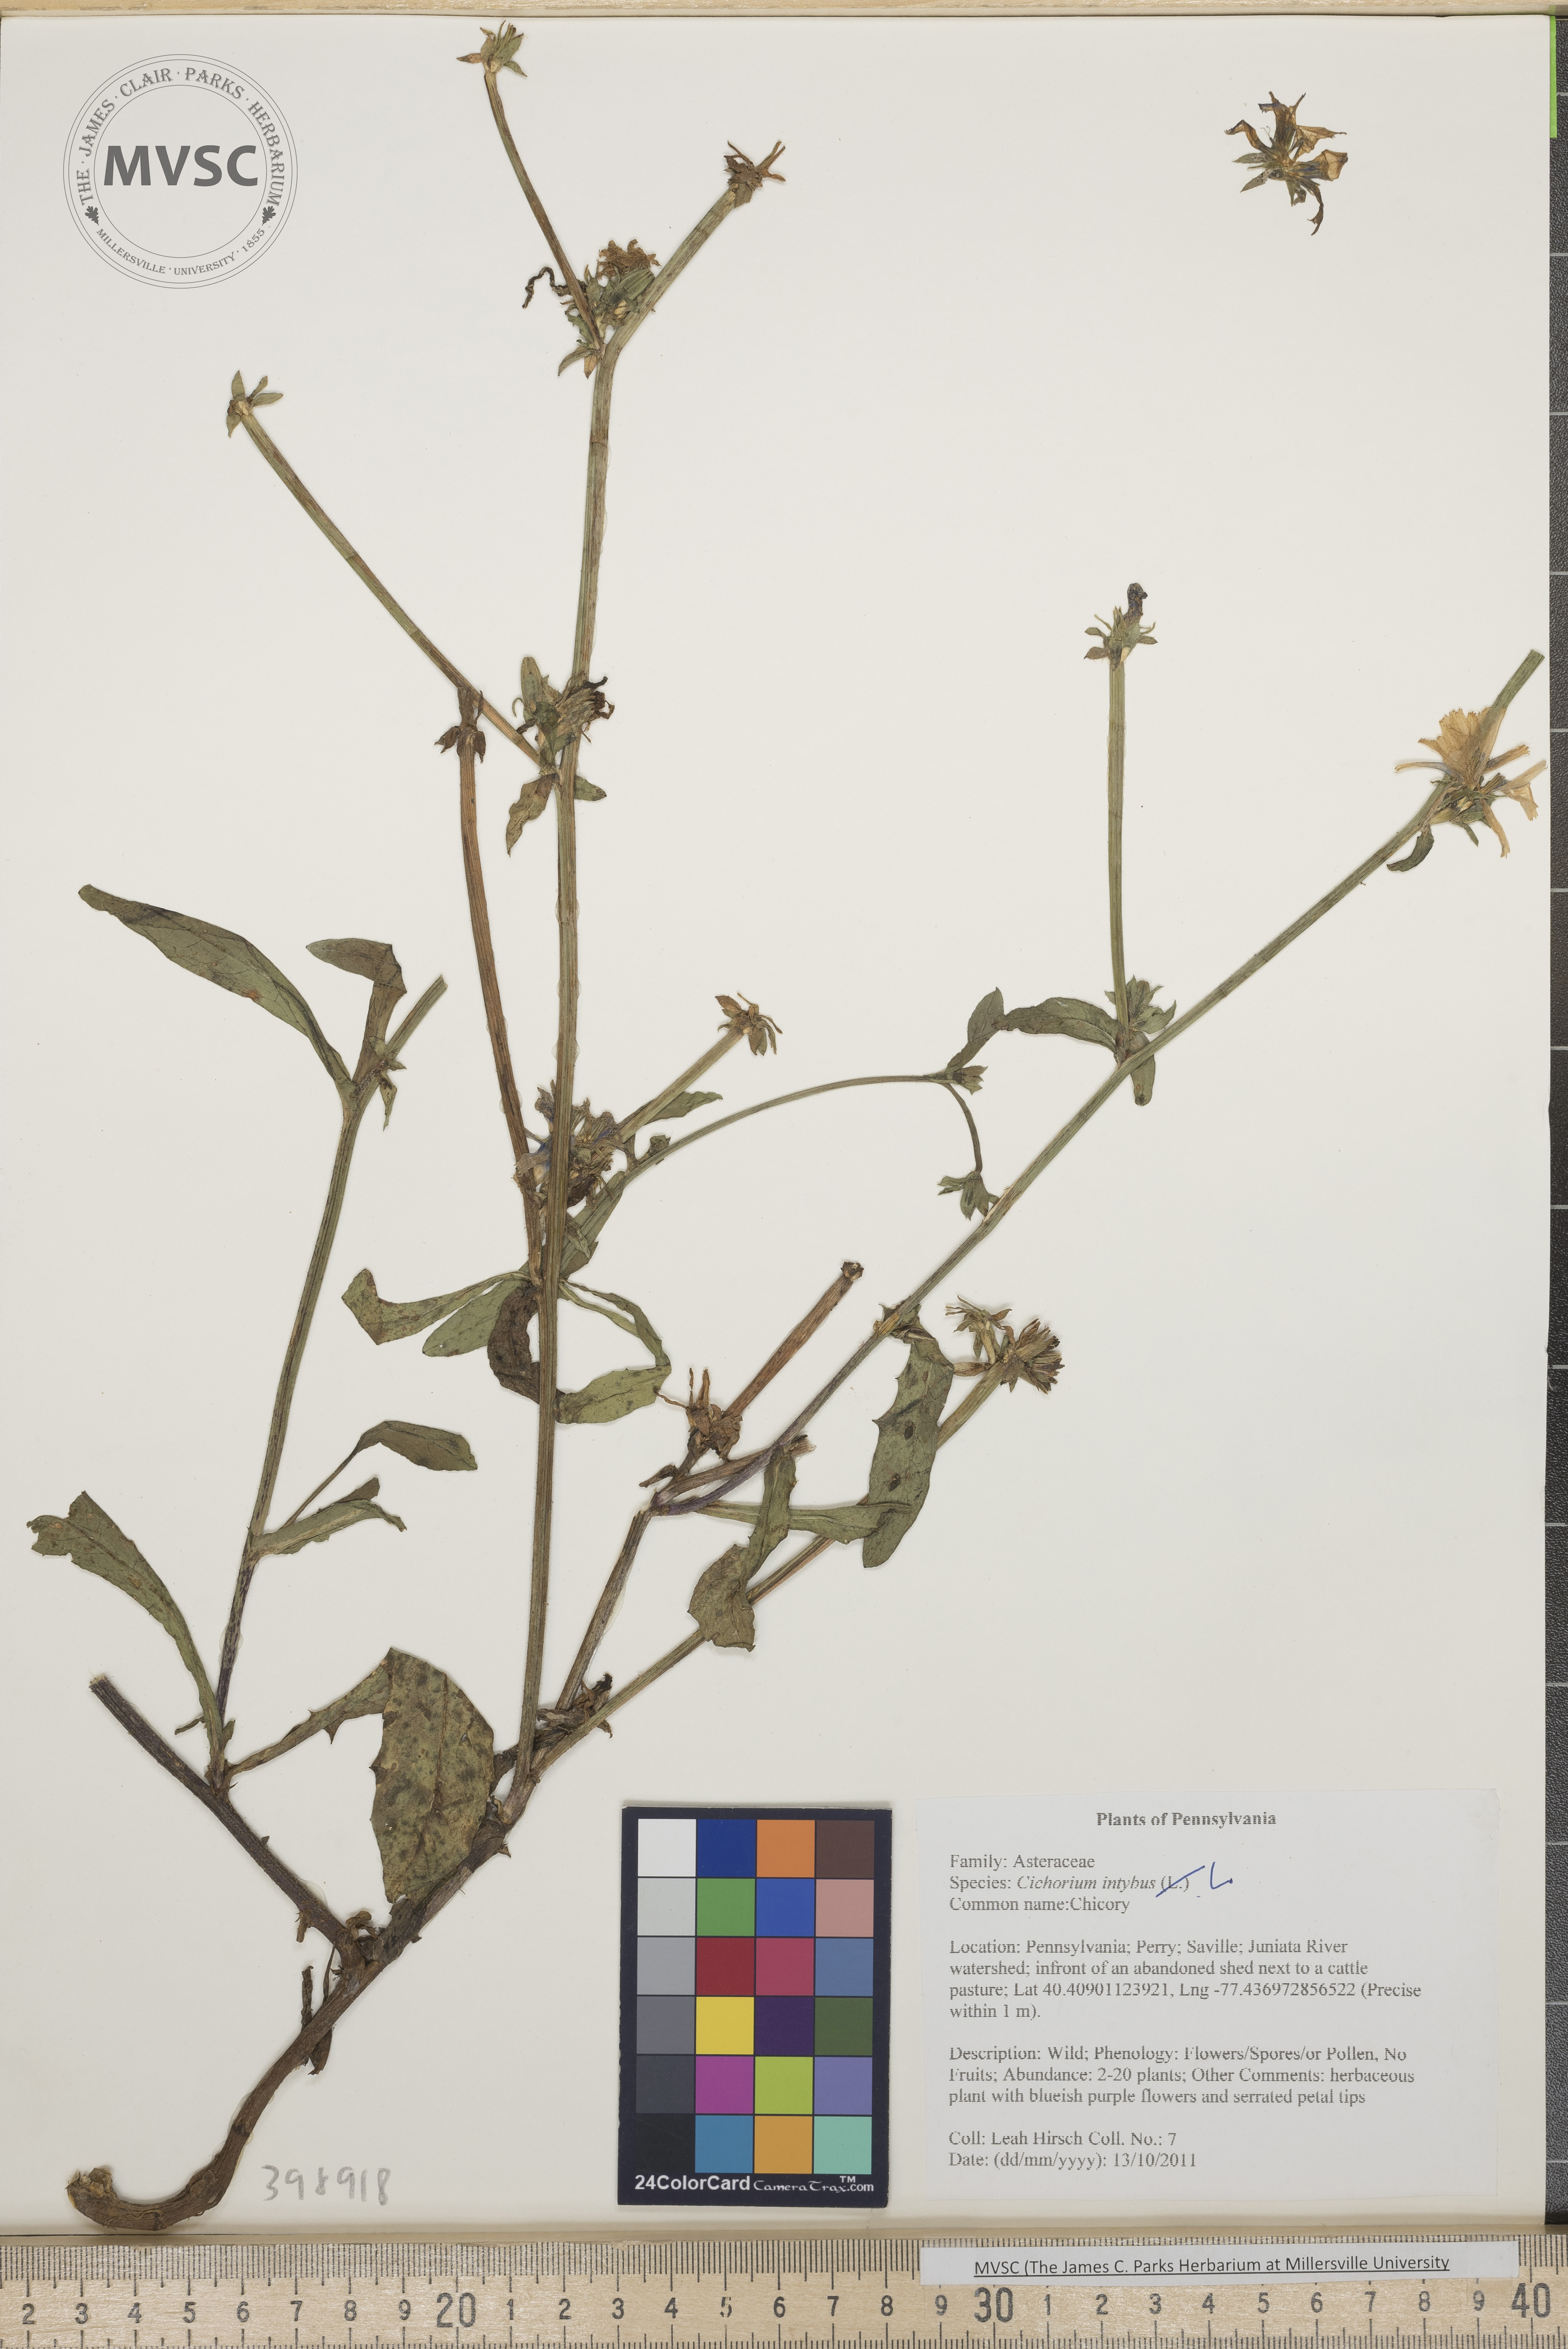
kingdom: Plantae
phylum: Tracheophyta
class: Magnoliopsida
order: Asterales
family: Asteraceae
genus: Cichorium
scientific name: Cichorium intybus
